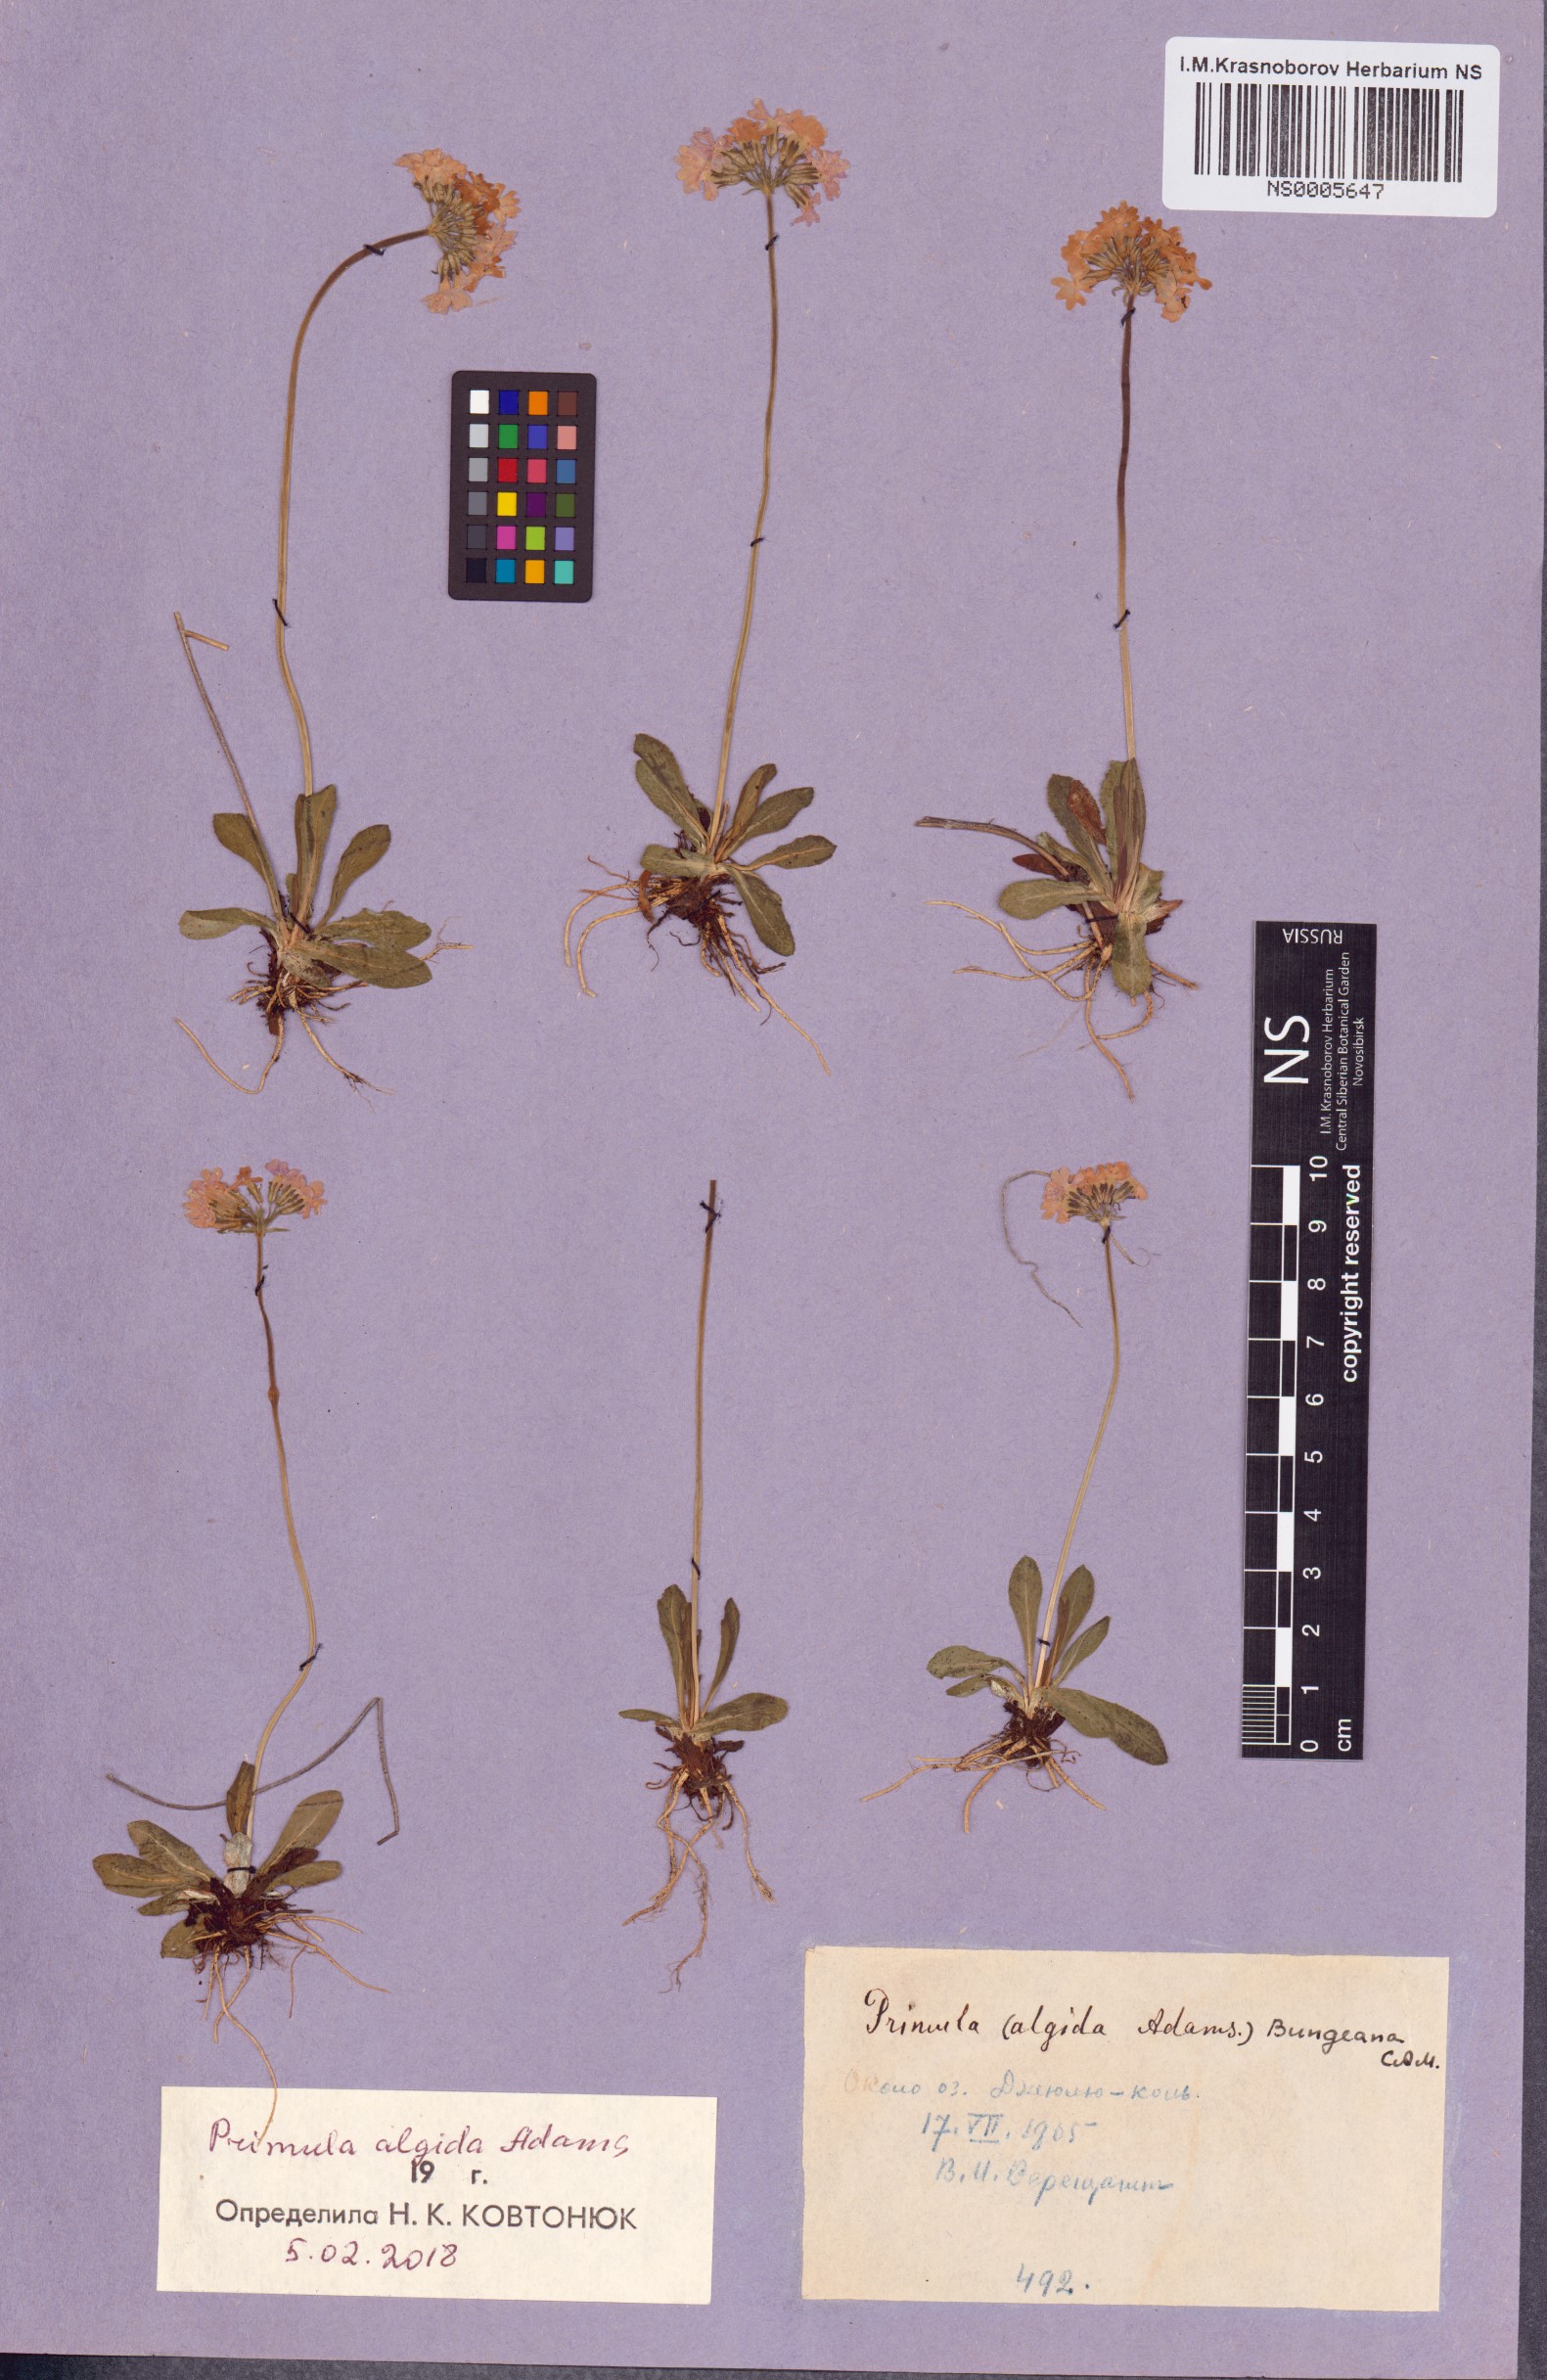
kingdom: Plantae
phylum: Tracheophyta
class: Magnoliopsida
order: Ericales
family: Primulaceae
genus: Primula
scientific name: Primula algida
